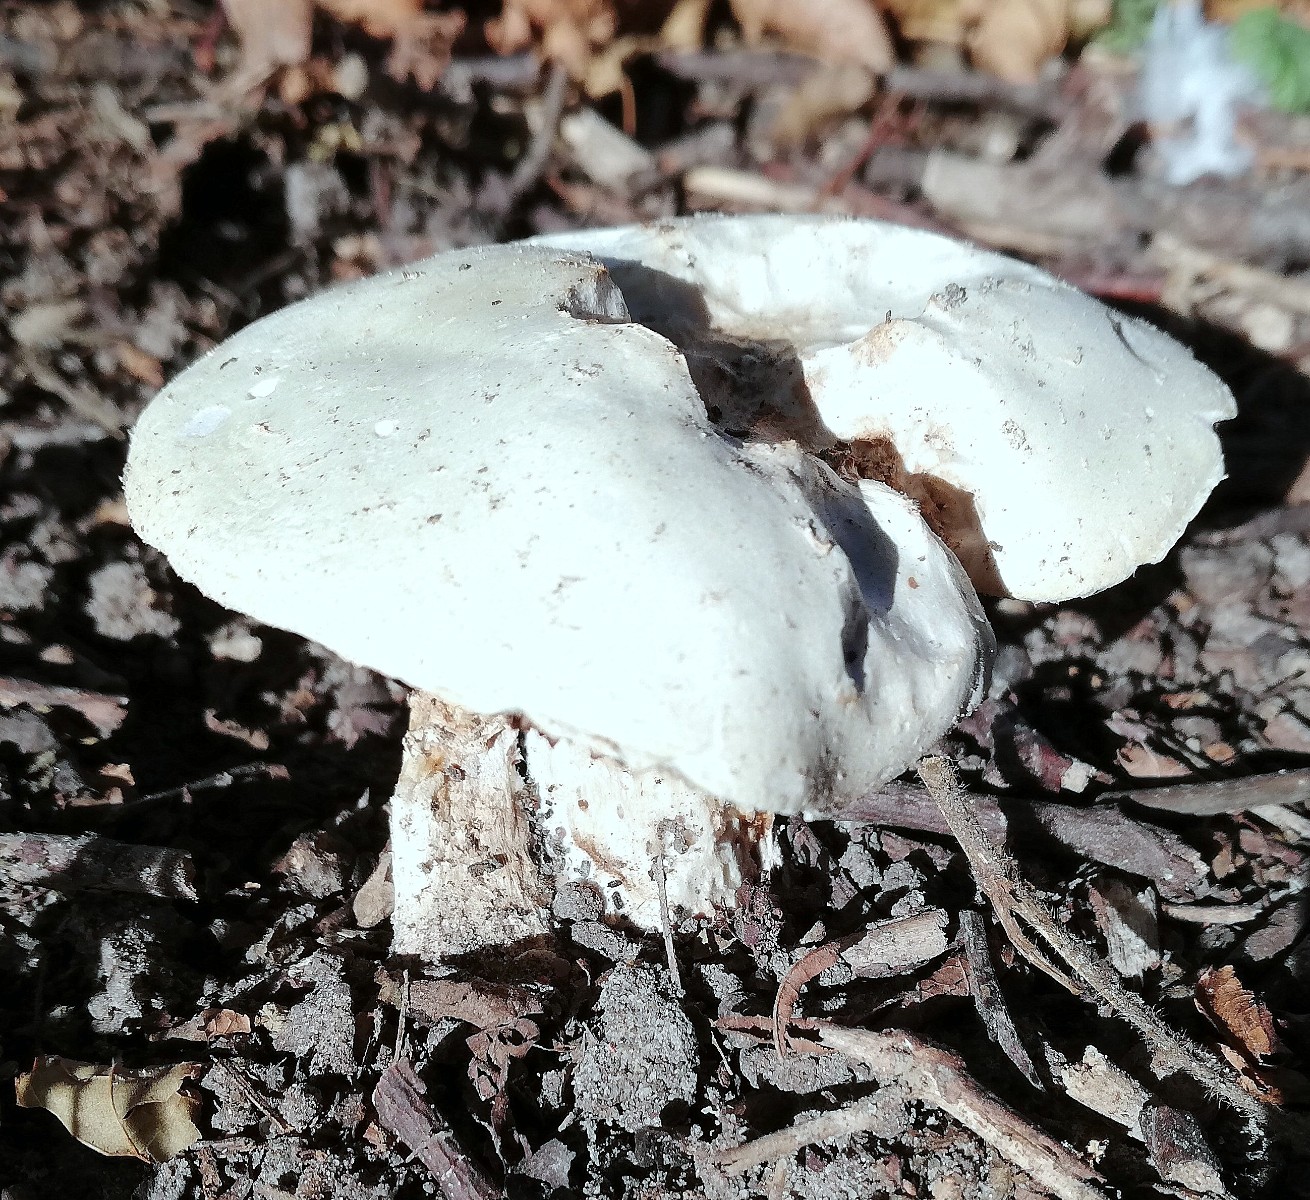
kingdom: Fungi
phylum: Basidiomycota
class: Agaricomycetes
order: Agaricales
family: Agaricaceae
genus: Agaricus
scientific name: Agaricus
